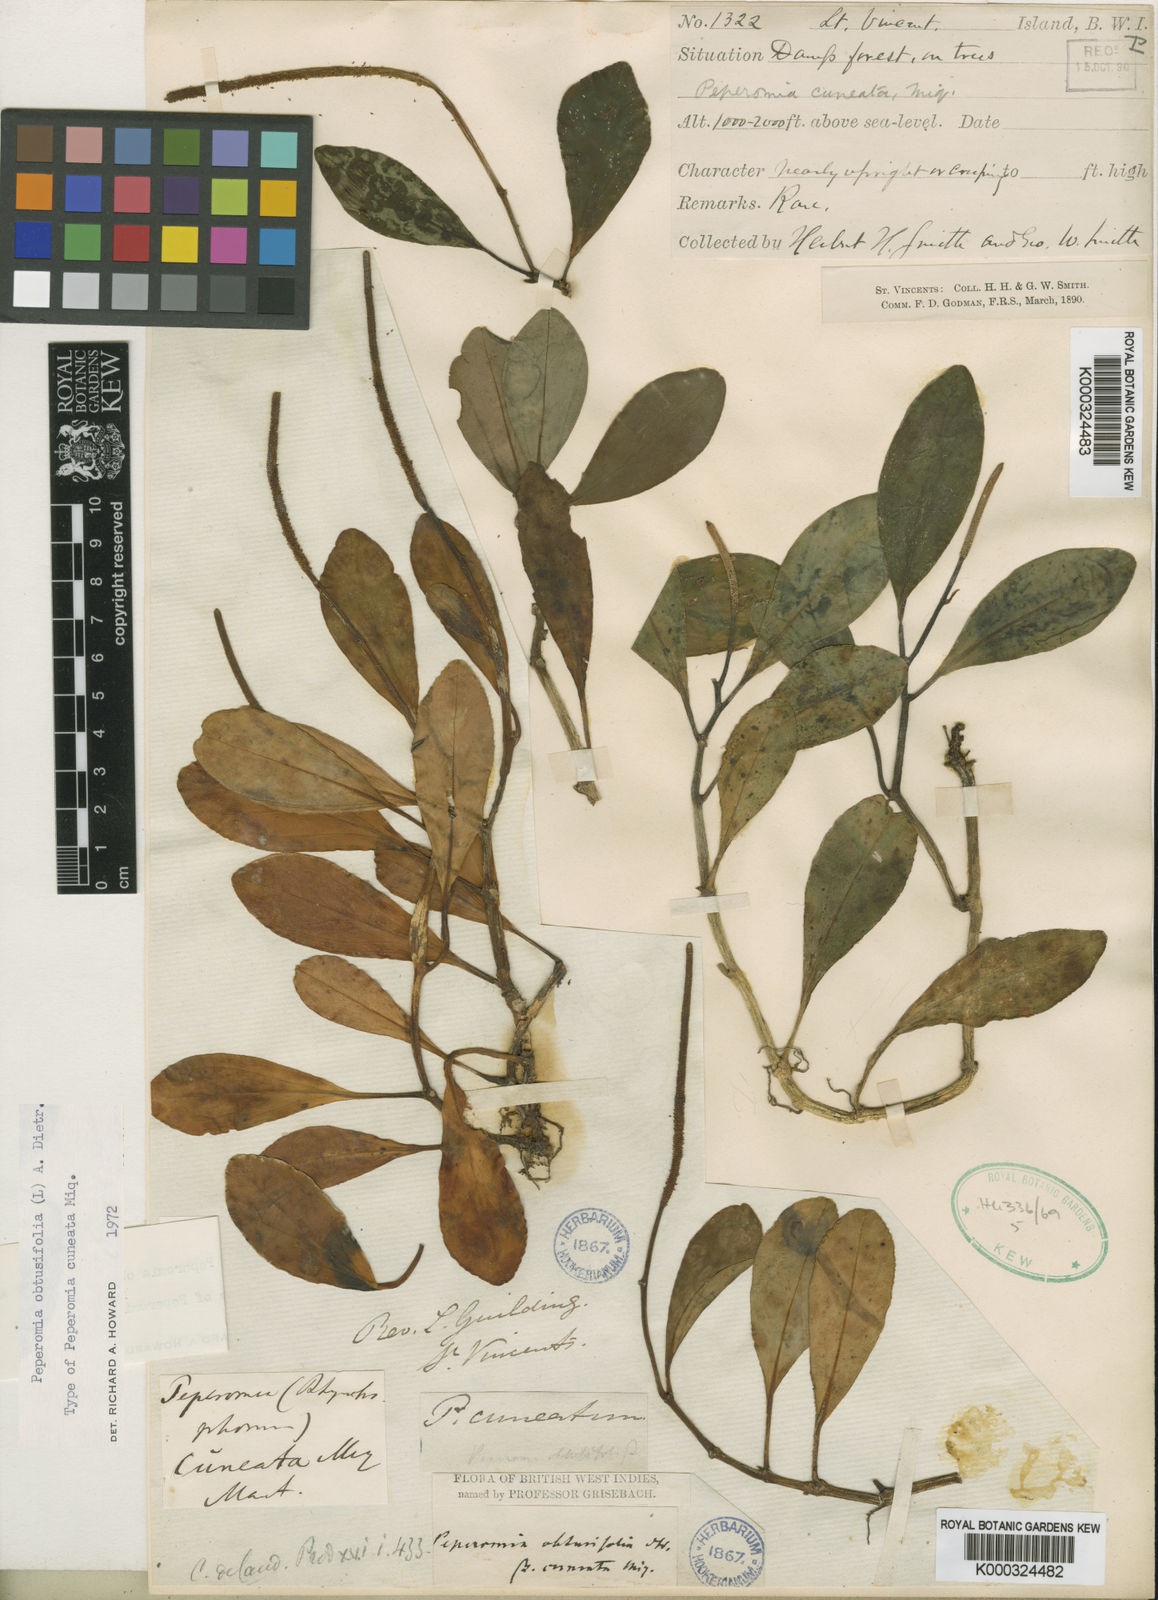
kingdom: Plantae
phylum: Tracheophyta
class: Magnoliopsida
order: Piperales
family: Piperaceae
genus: Peperomia
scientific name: Peperomia hirtella
